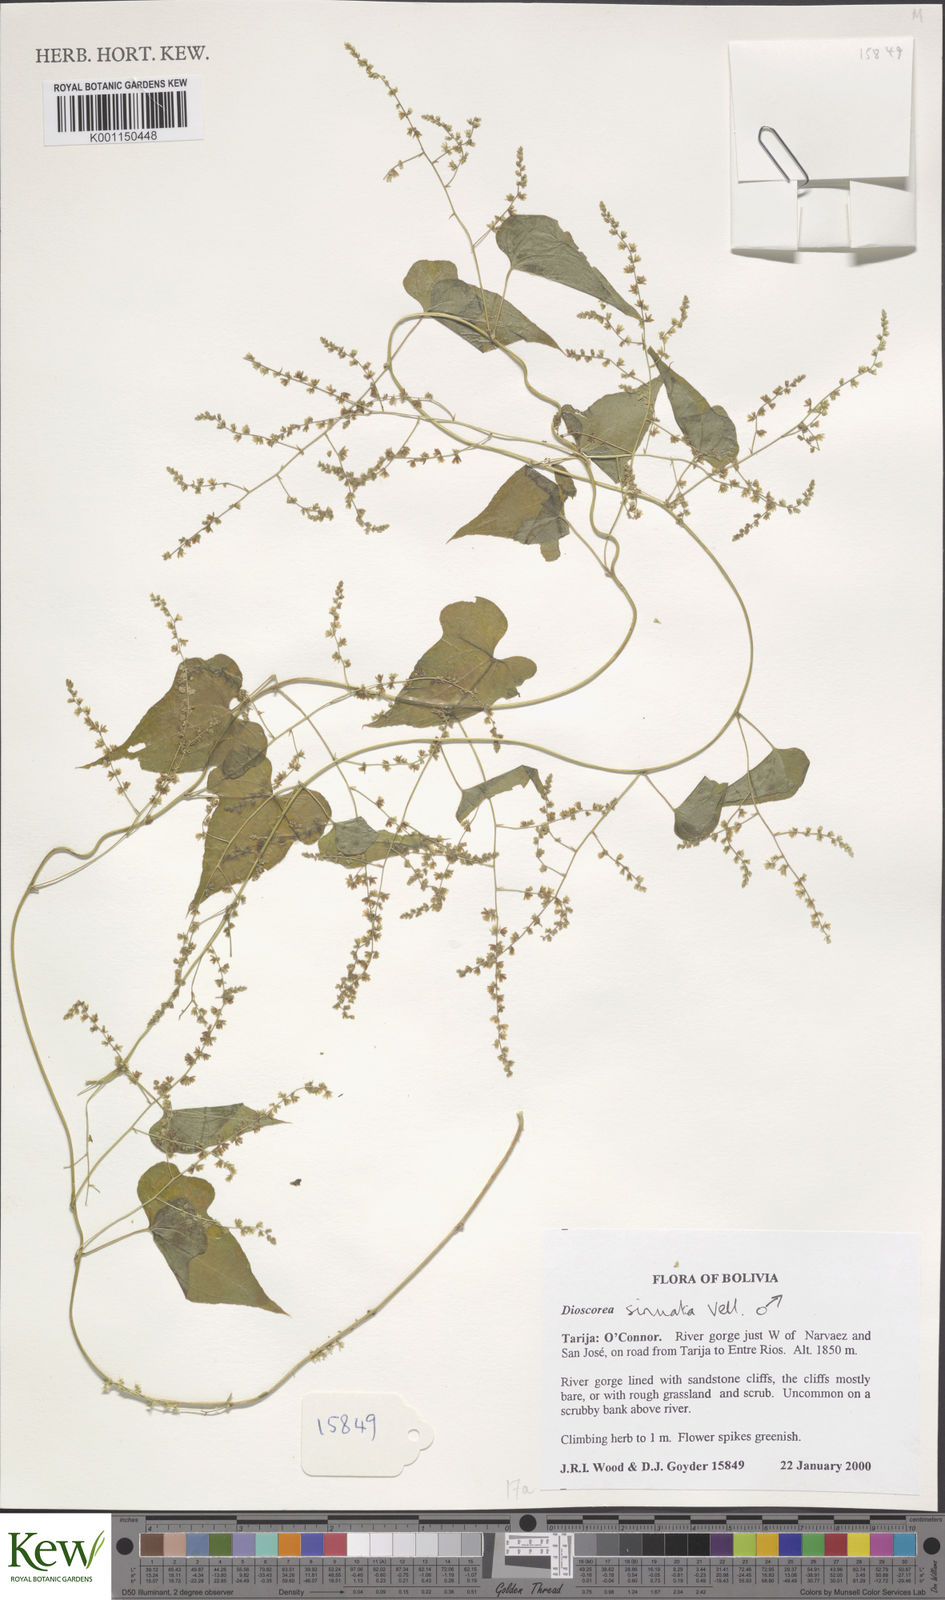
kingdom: Plantae
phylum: Tracheophyta
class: Liliopsida
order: Dioscoreales
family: Dioscoreaceae
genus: Dioscorea
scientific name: Dioscorea sinuata
